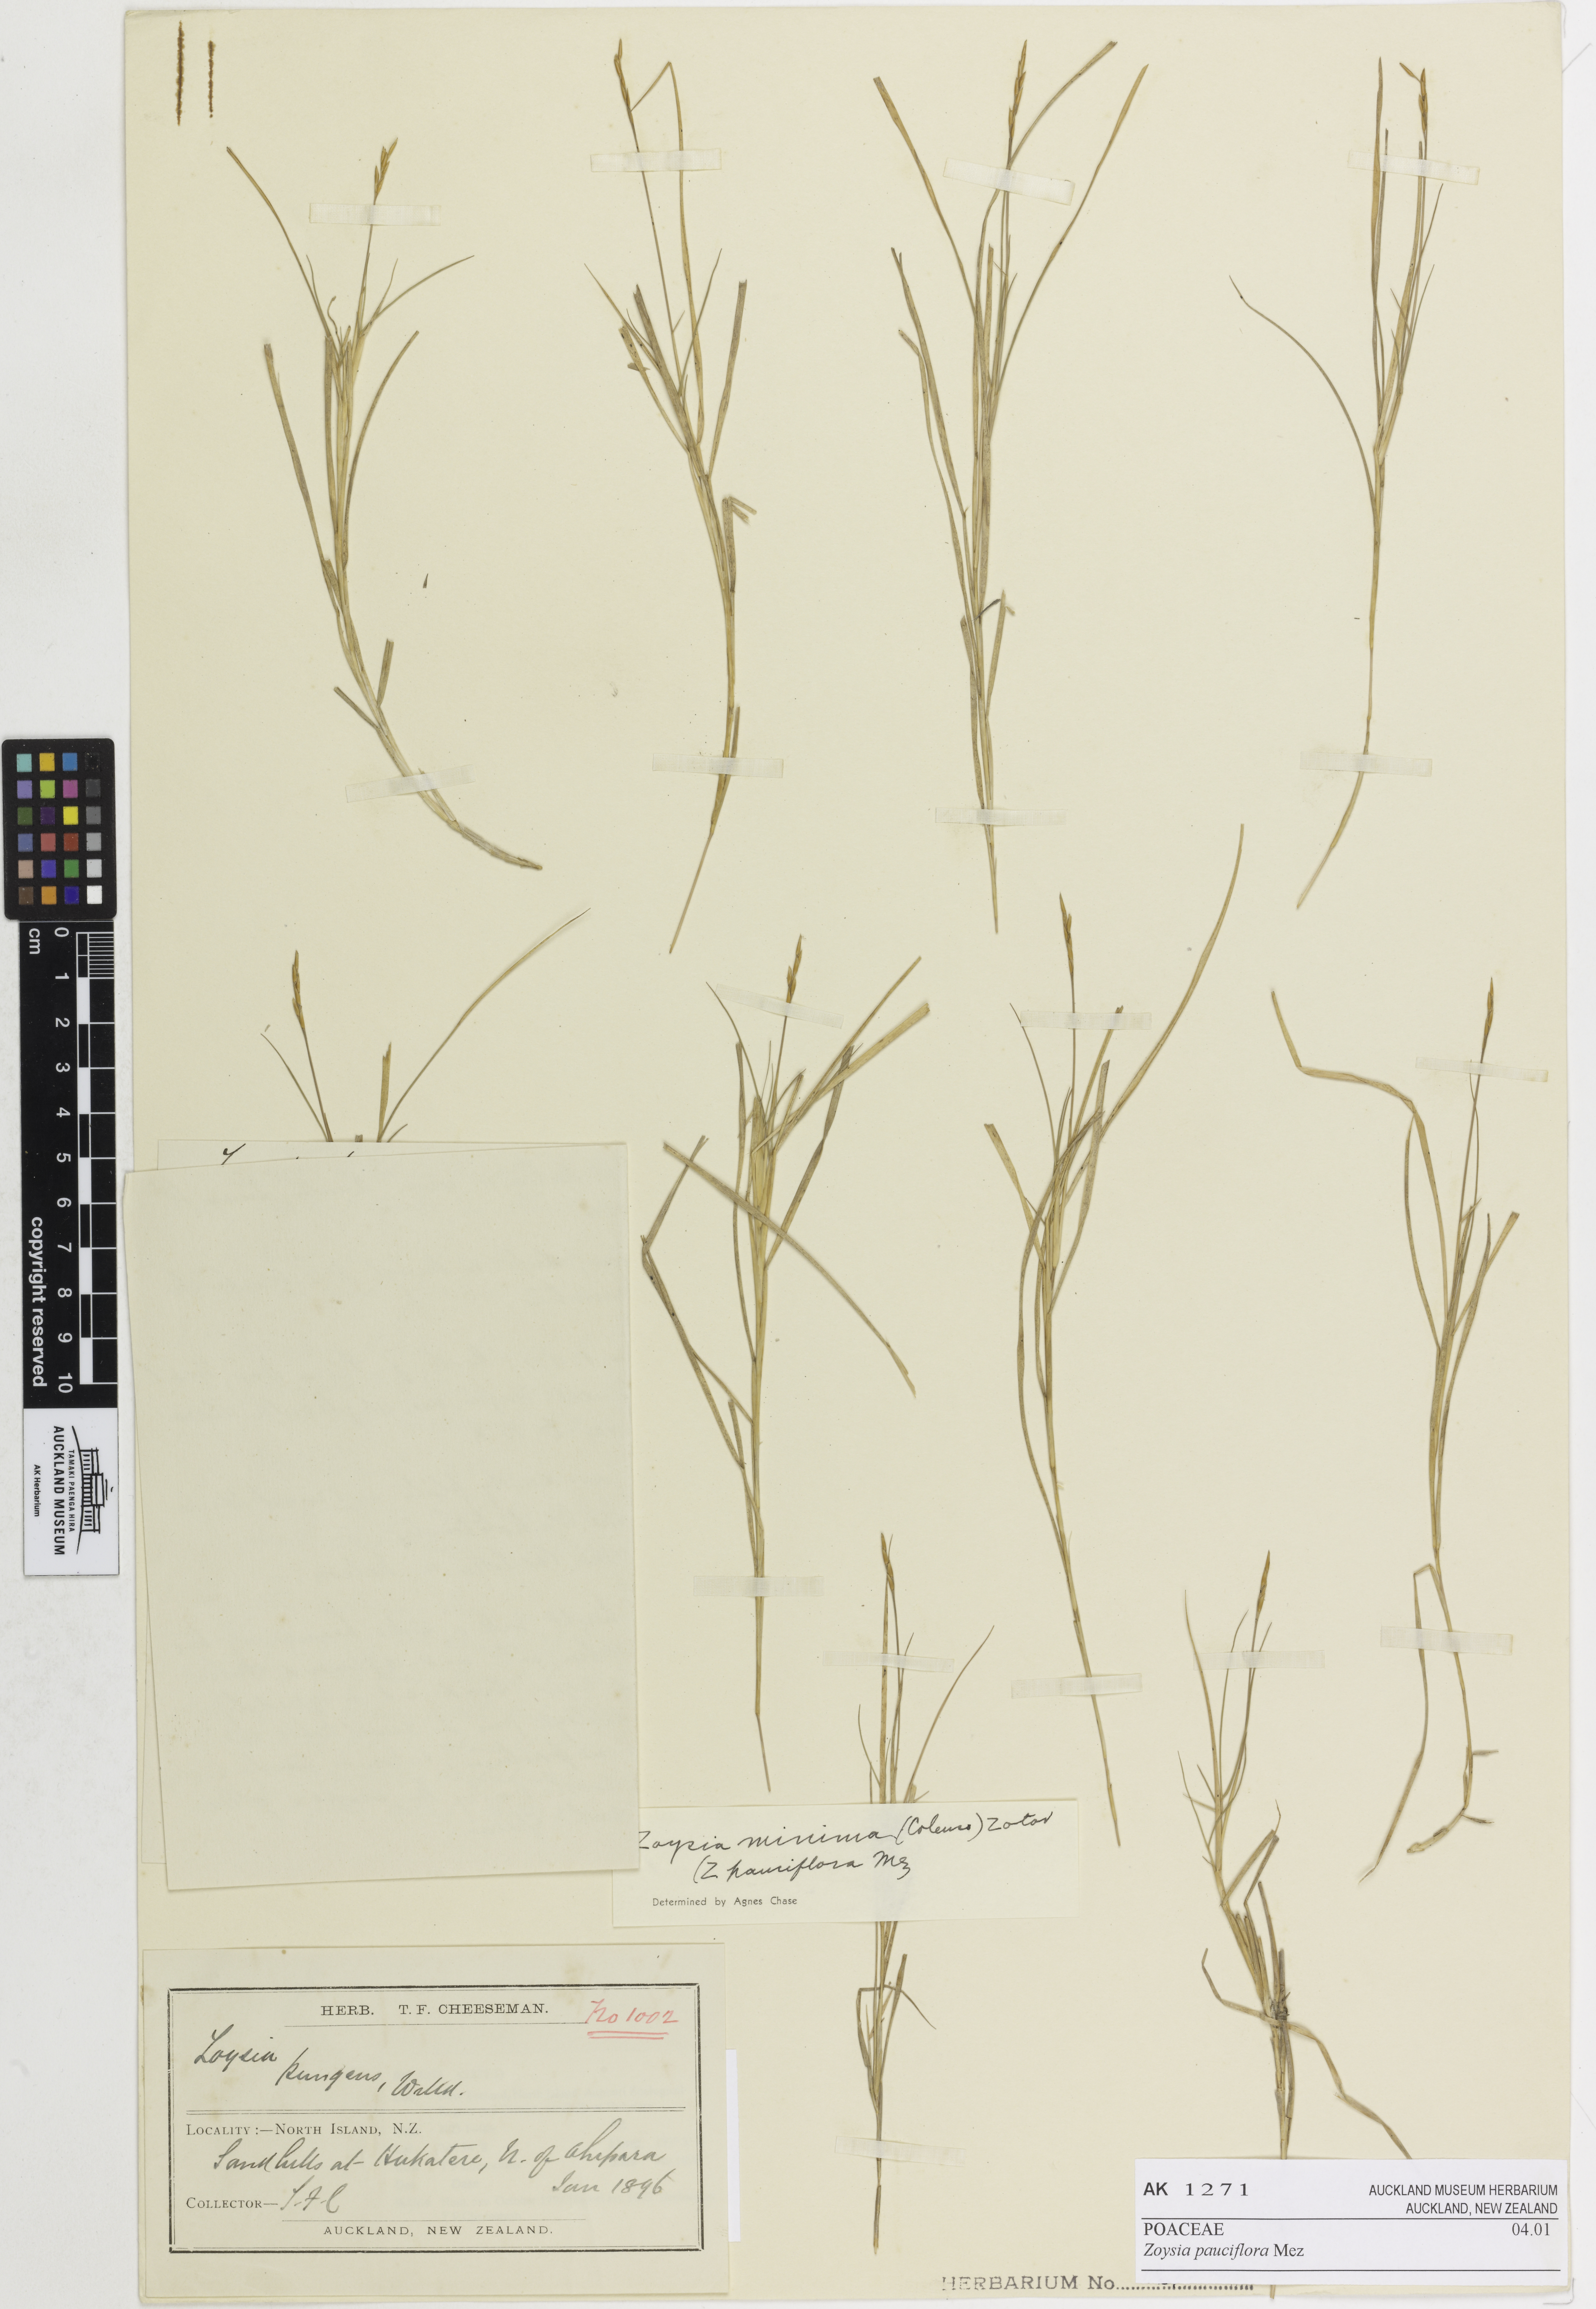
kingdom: Plantae
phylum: Tracheophyta
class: Liliopsida
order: Poales
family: Poaceae
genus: Zoysia
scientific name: Zoysia pauciflora
